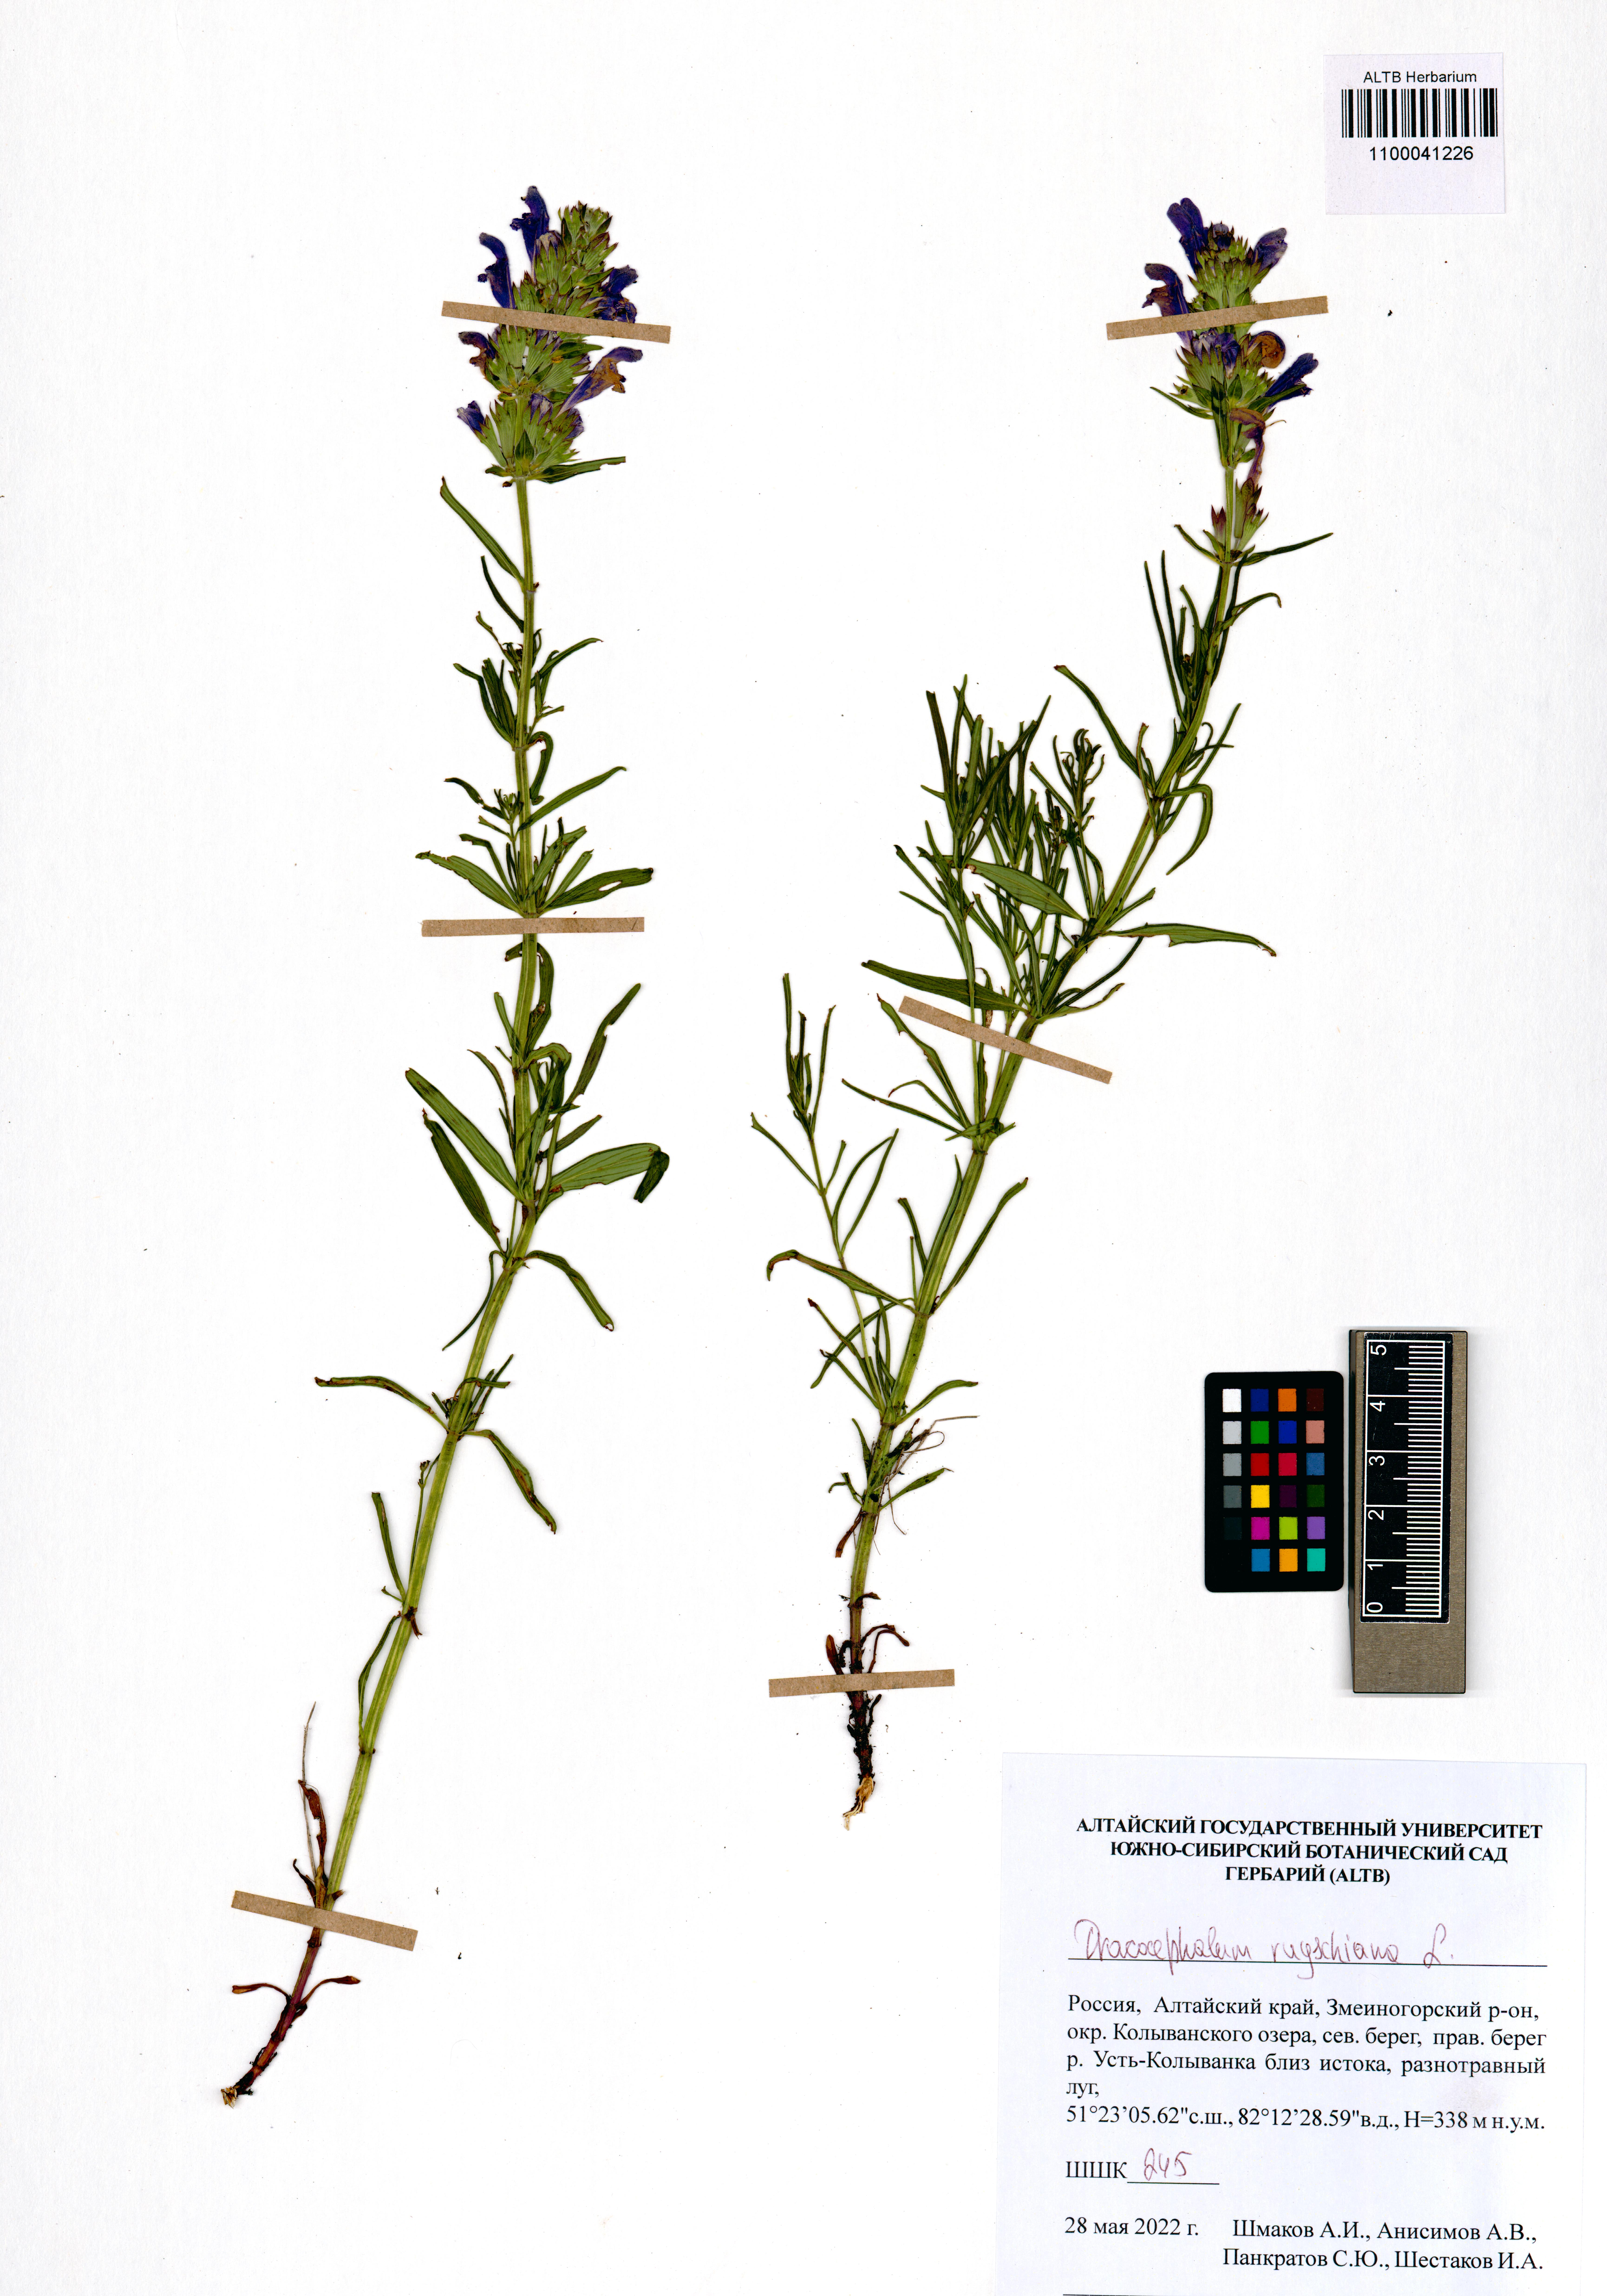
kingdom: Plantae
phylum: Tracheophyta
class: Magnoliopsida
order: Lamiales
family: Lamiaceae
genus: Dracocephalum
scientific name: Dracocephalum ruyschiana
